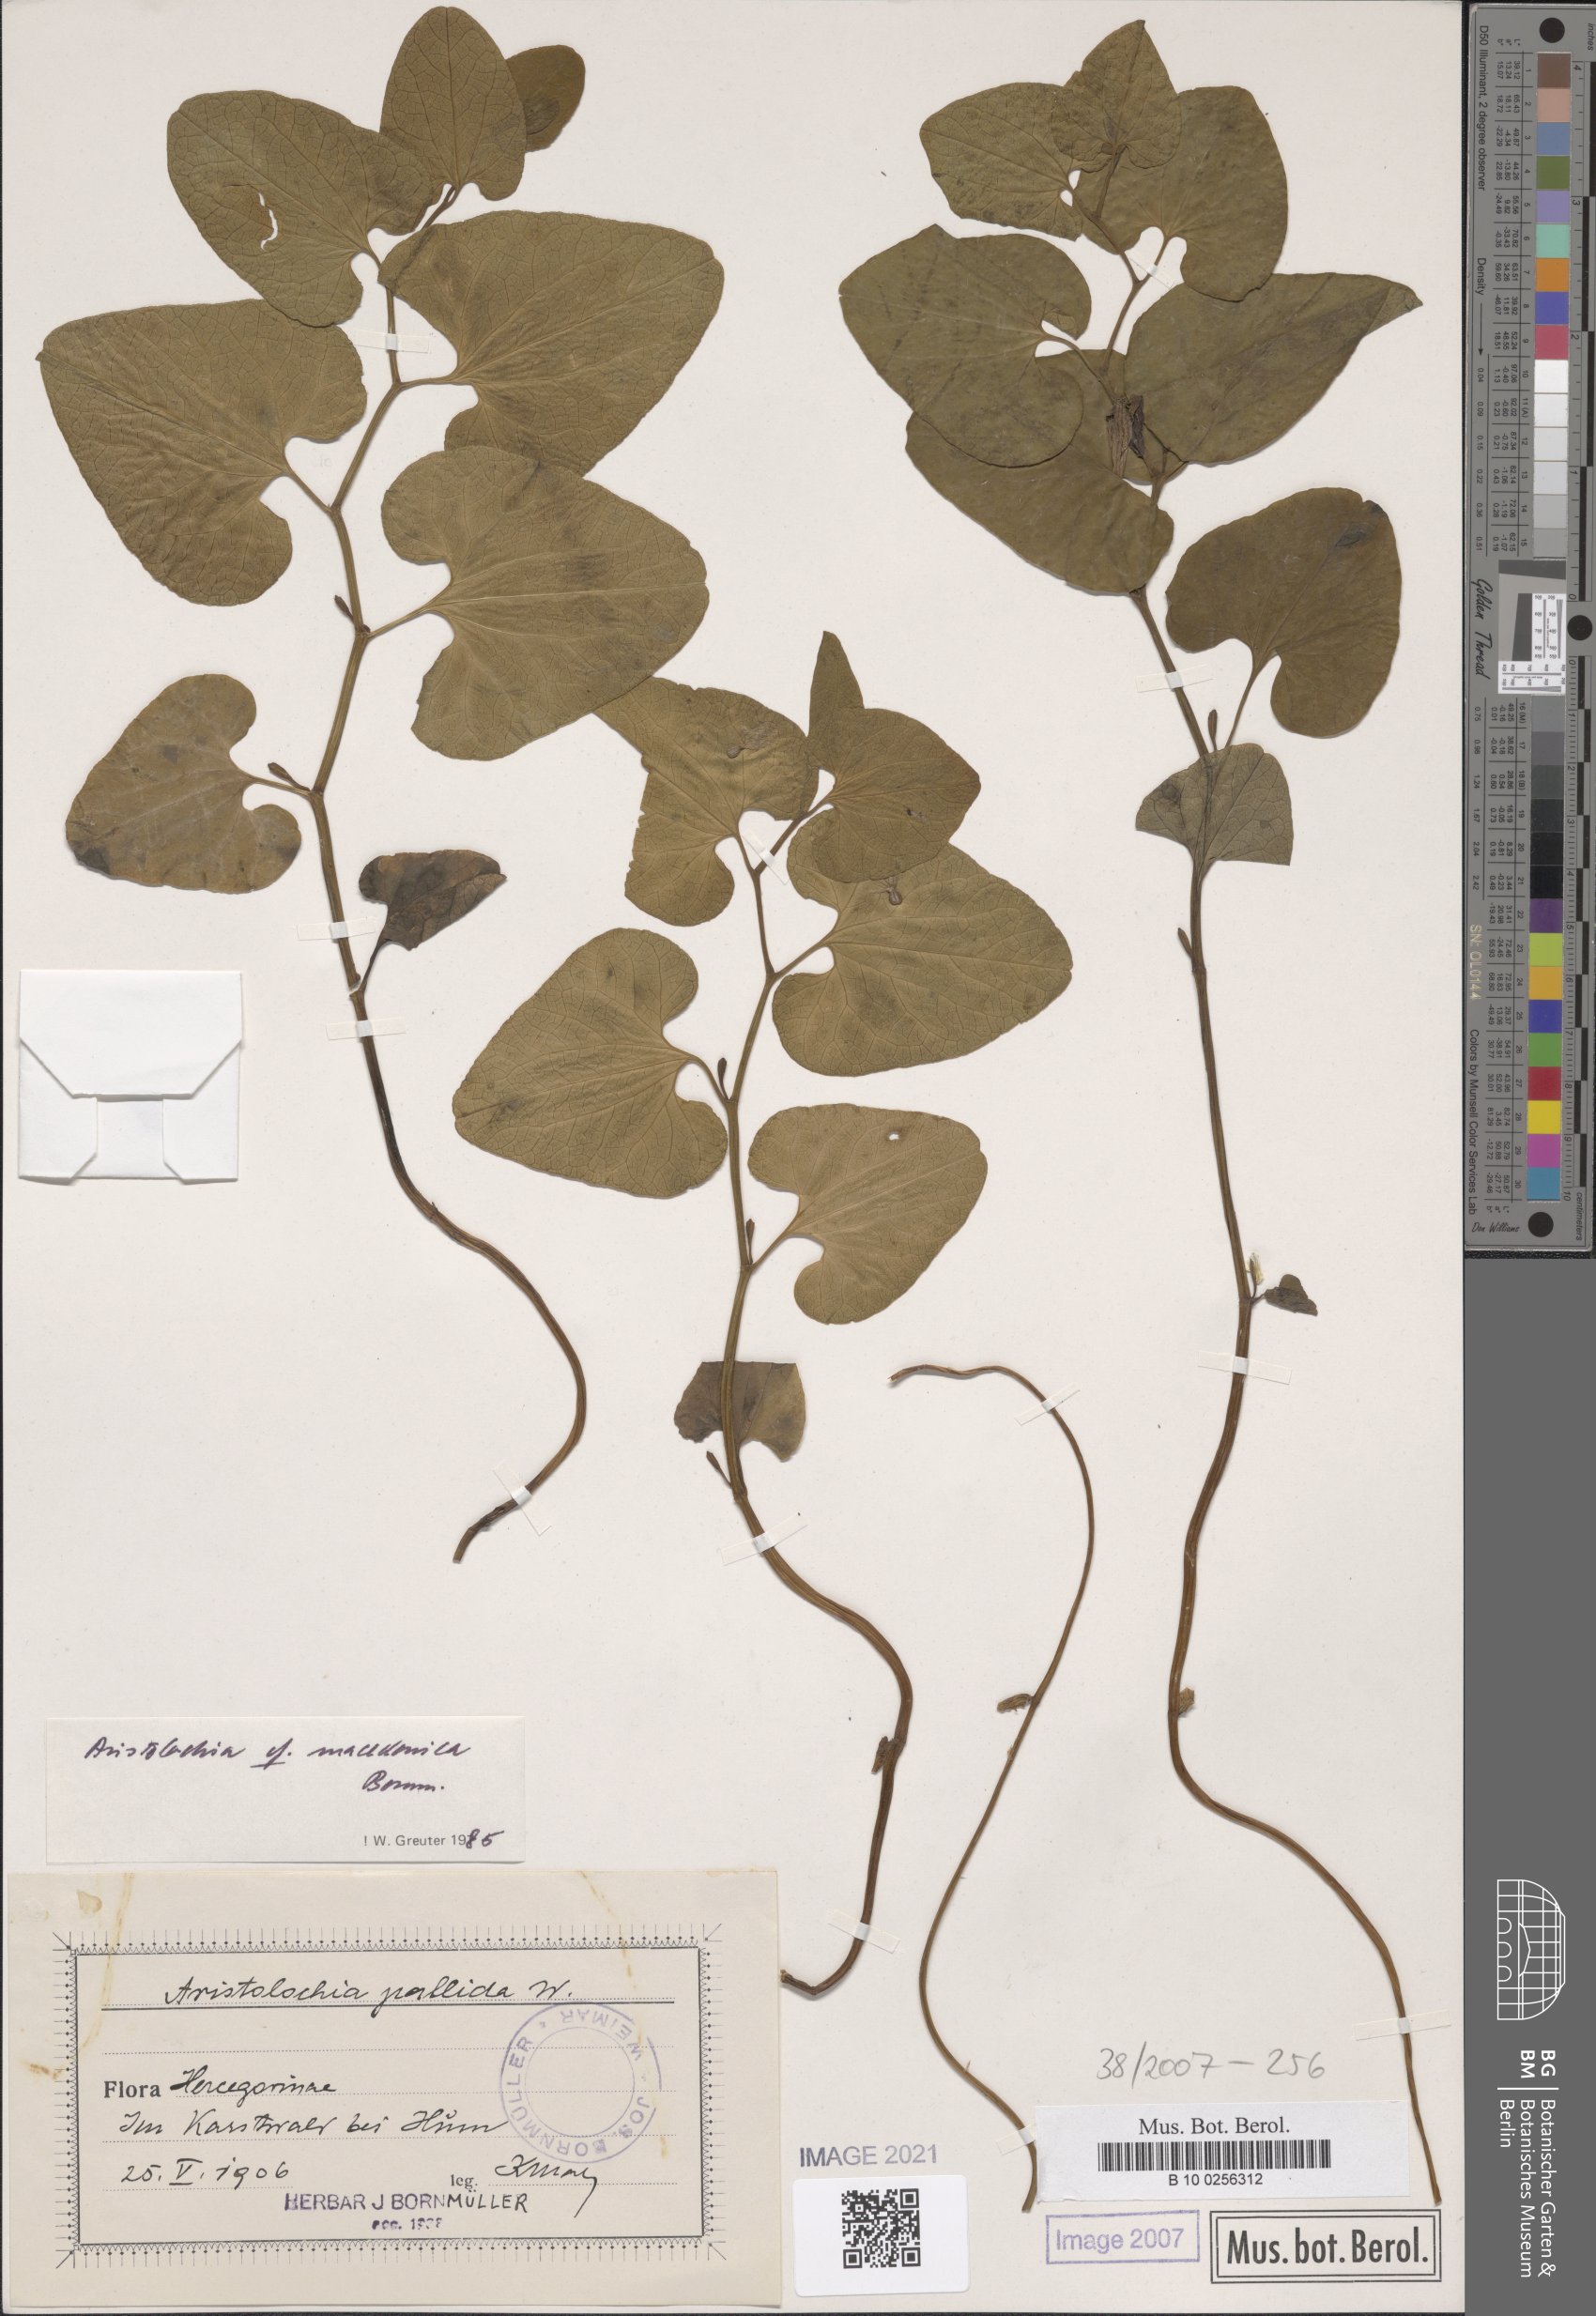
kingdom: Plantae
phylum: Tracheophyta
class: Magnoliopsida
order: Piperales
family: Aristolochiaceae
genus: Aristolochia
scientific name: Aristolochia pallida
